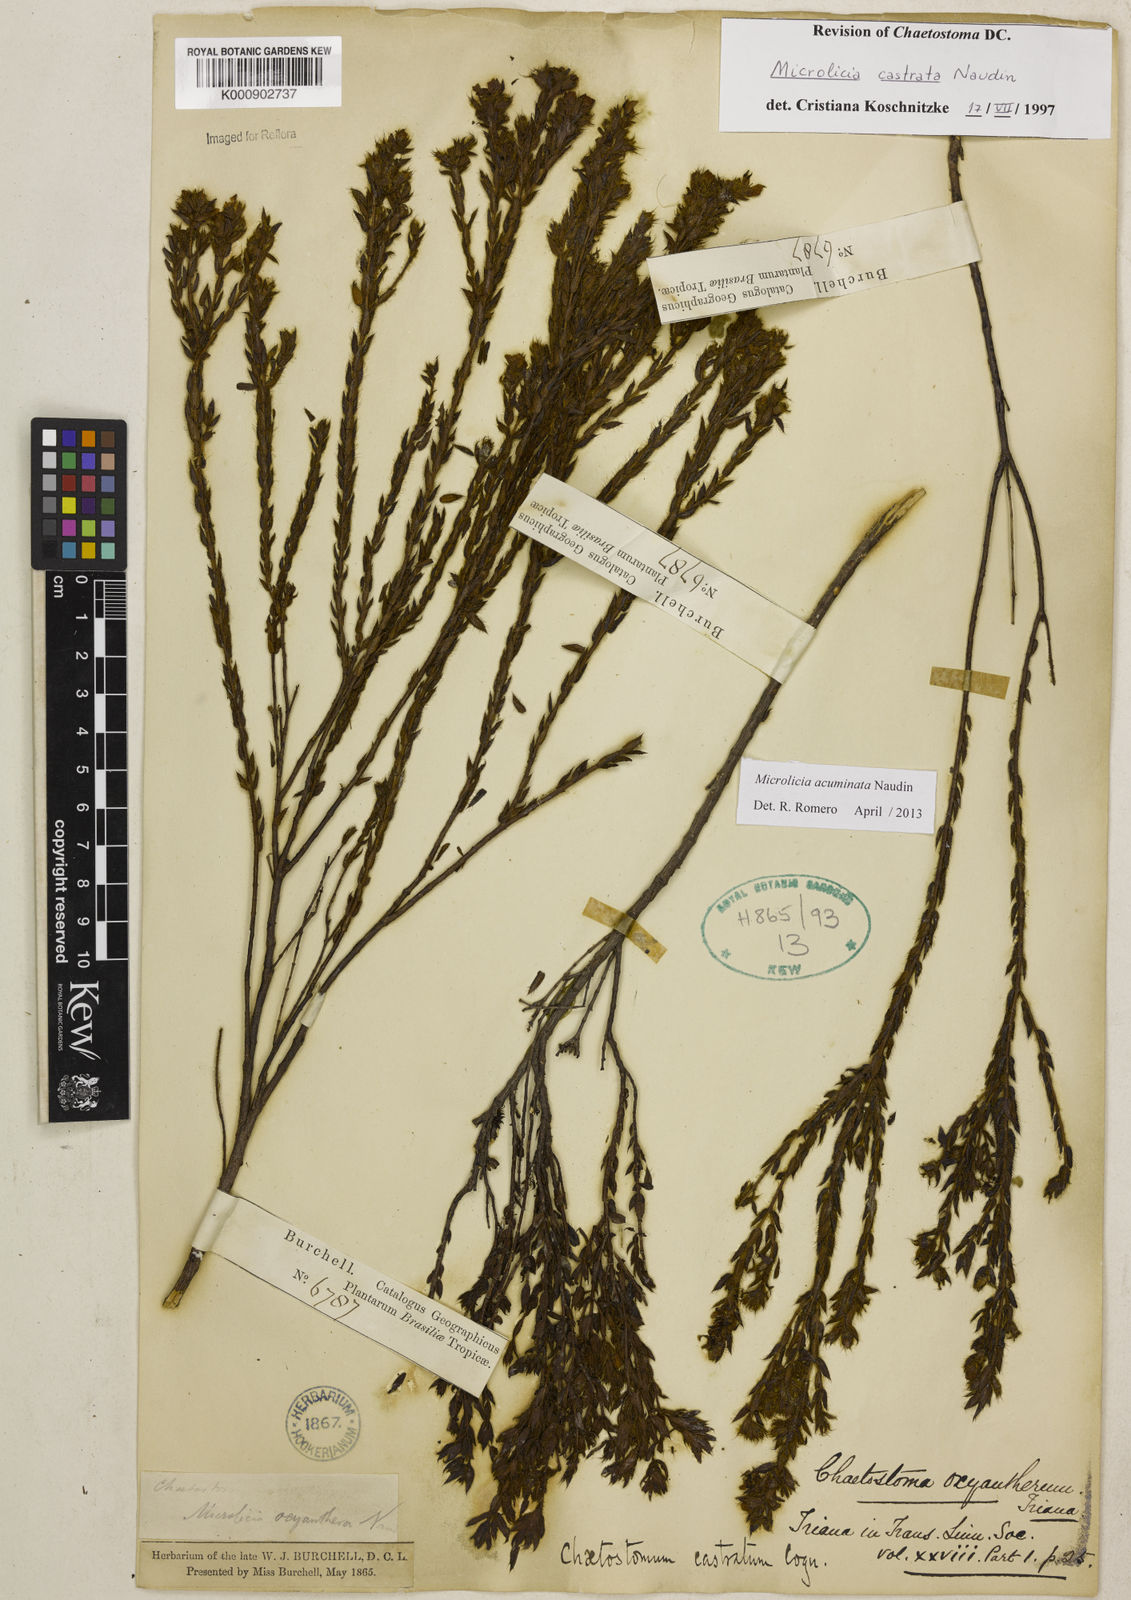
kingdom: Plantae
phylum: Tracheophyta
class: Magnoliopsida
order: Myrtales
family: Melastomataceae
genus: Microlicia
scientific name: Microlicia
